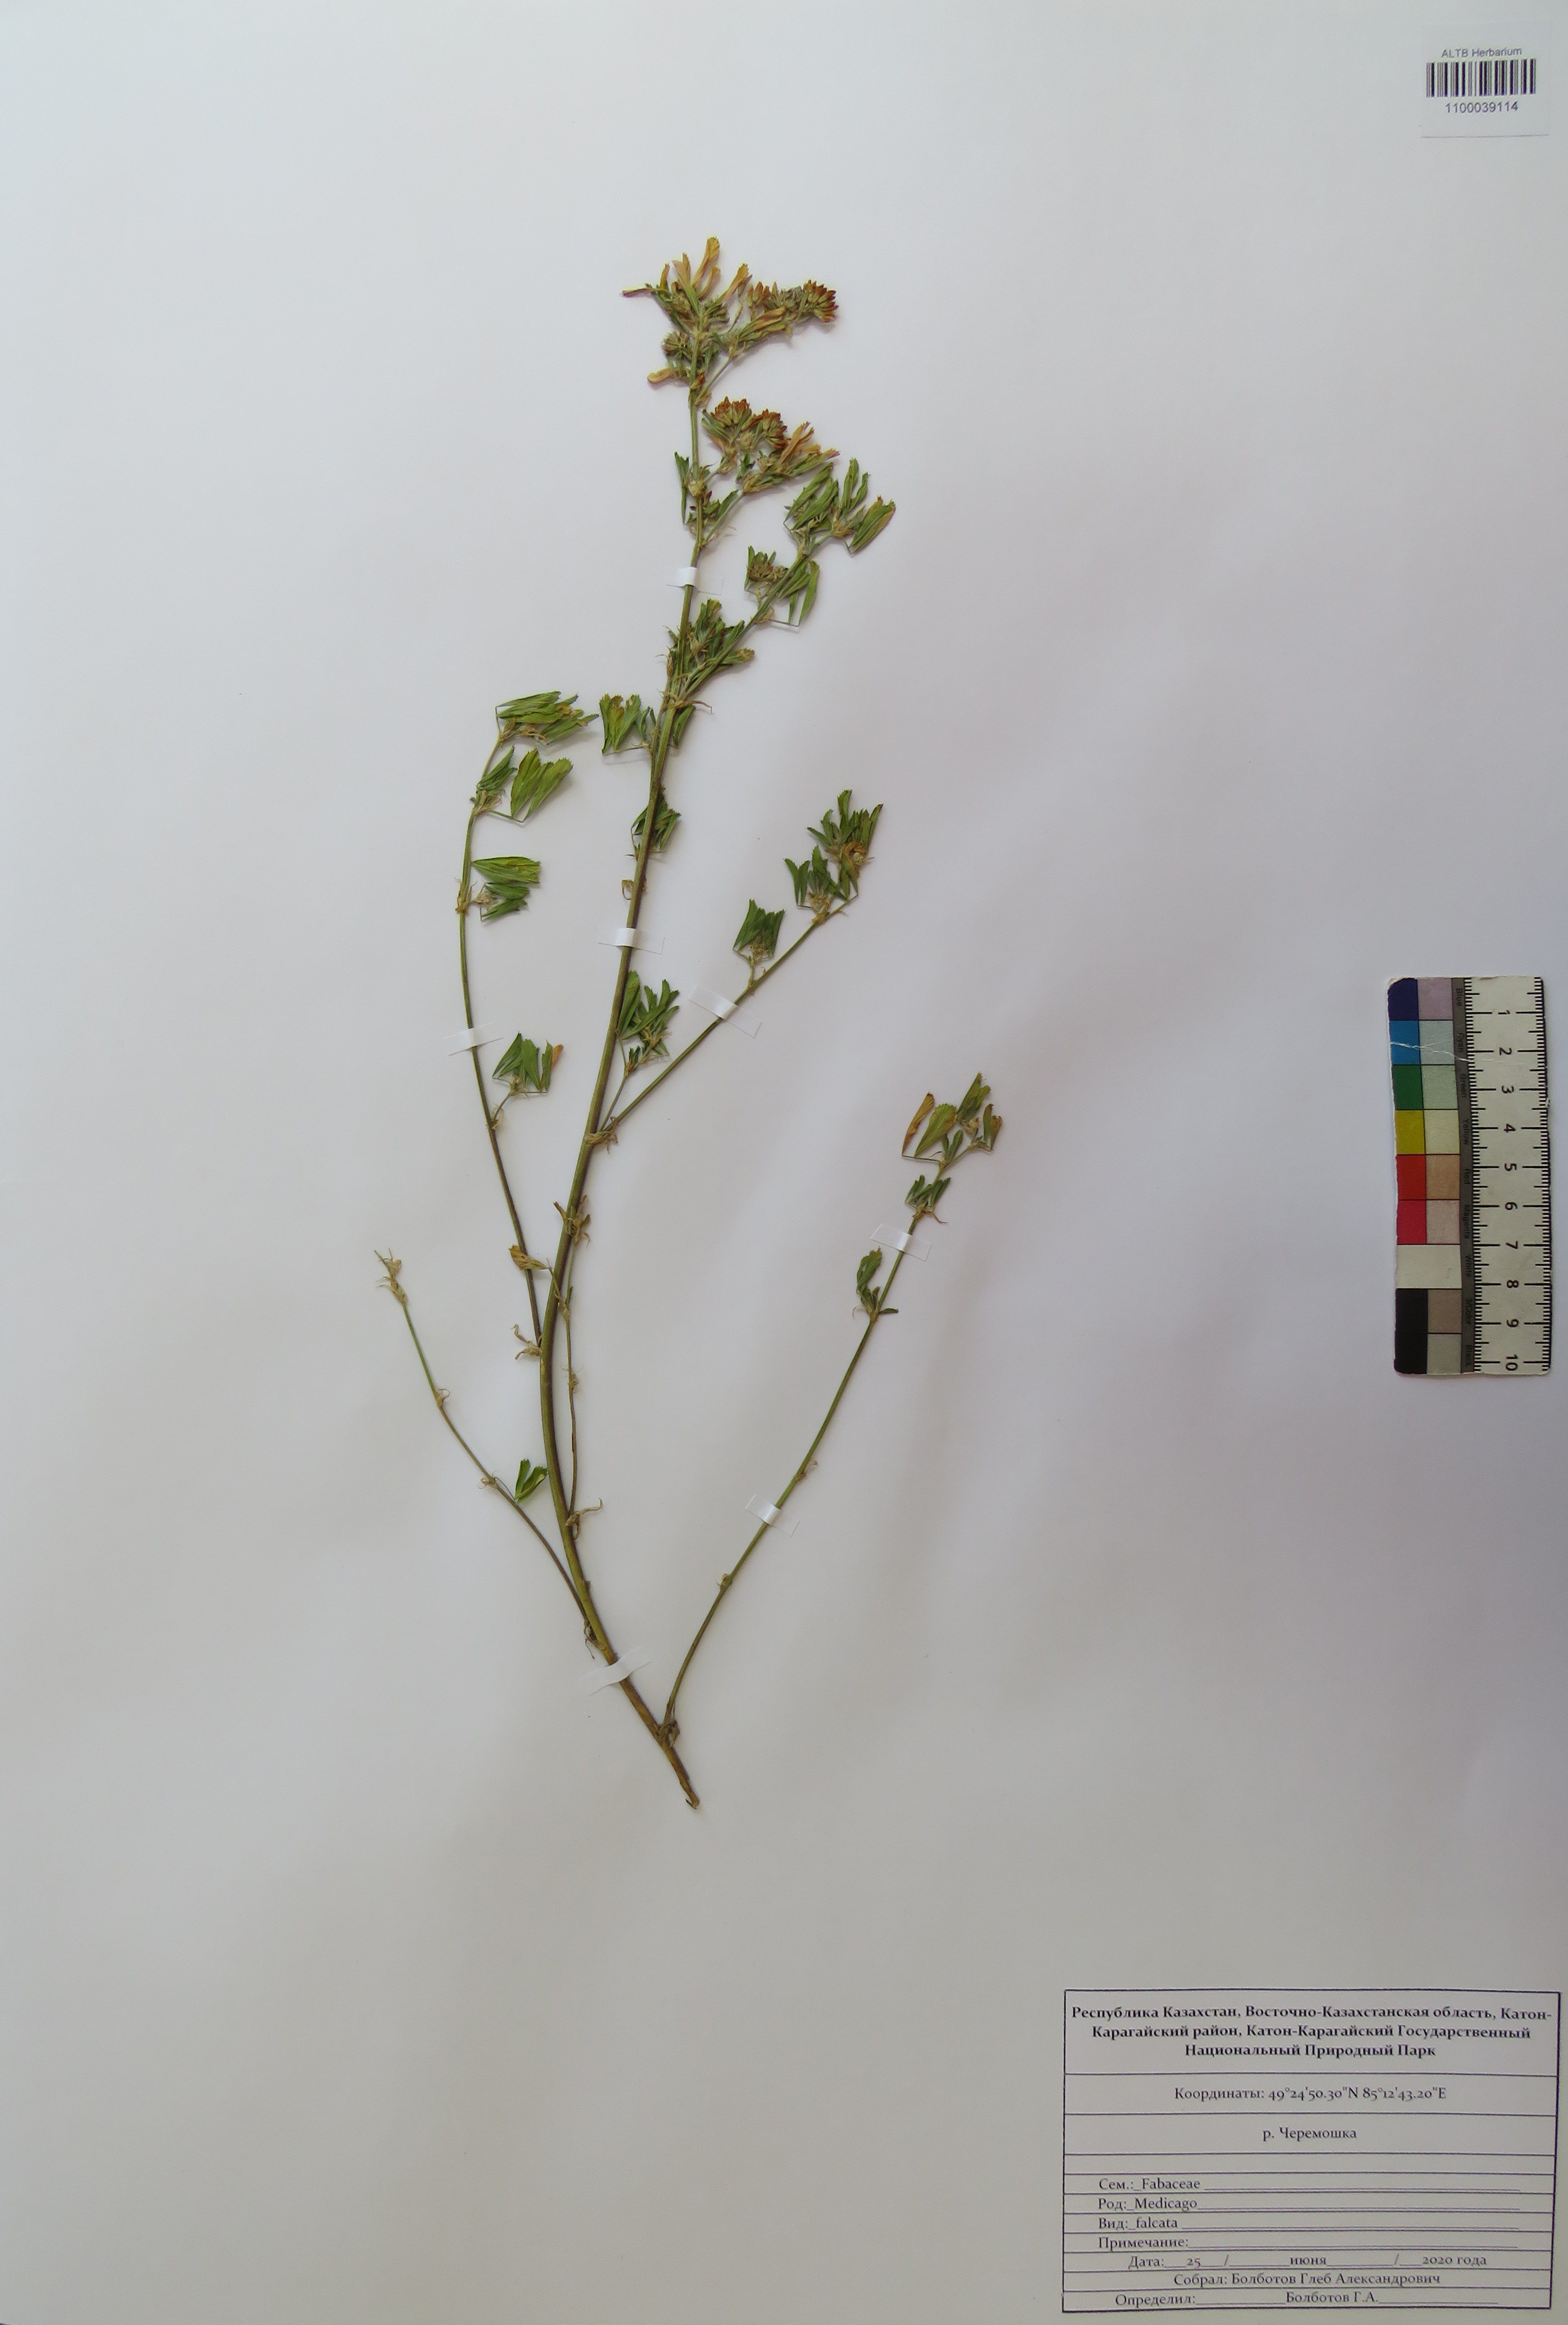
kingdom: Plantae
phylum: Tracheophyta
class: Magnoliopsida
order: Fabales
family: Fabaceae
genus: Medicago
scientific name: Medicago falcata
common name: Sickle medick
